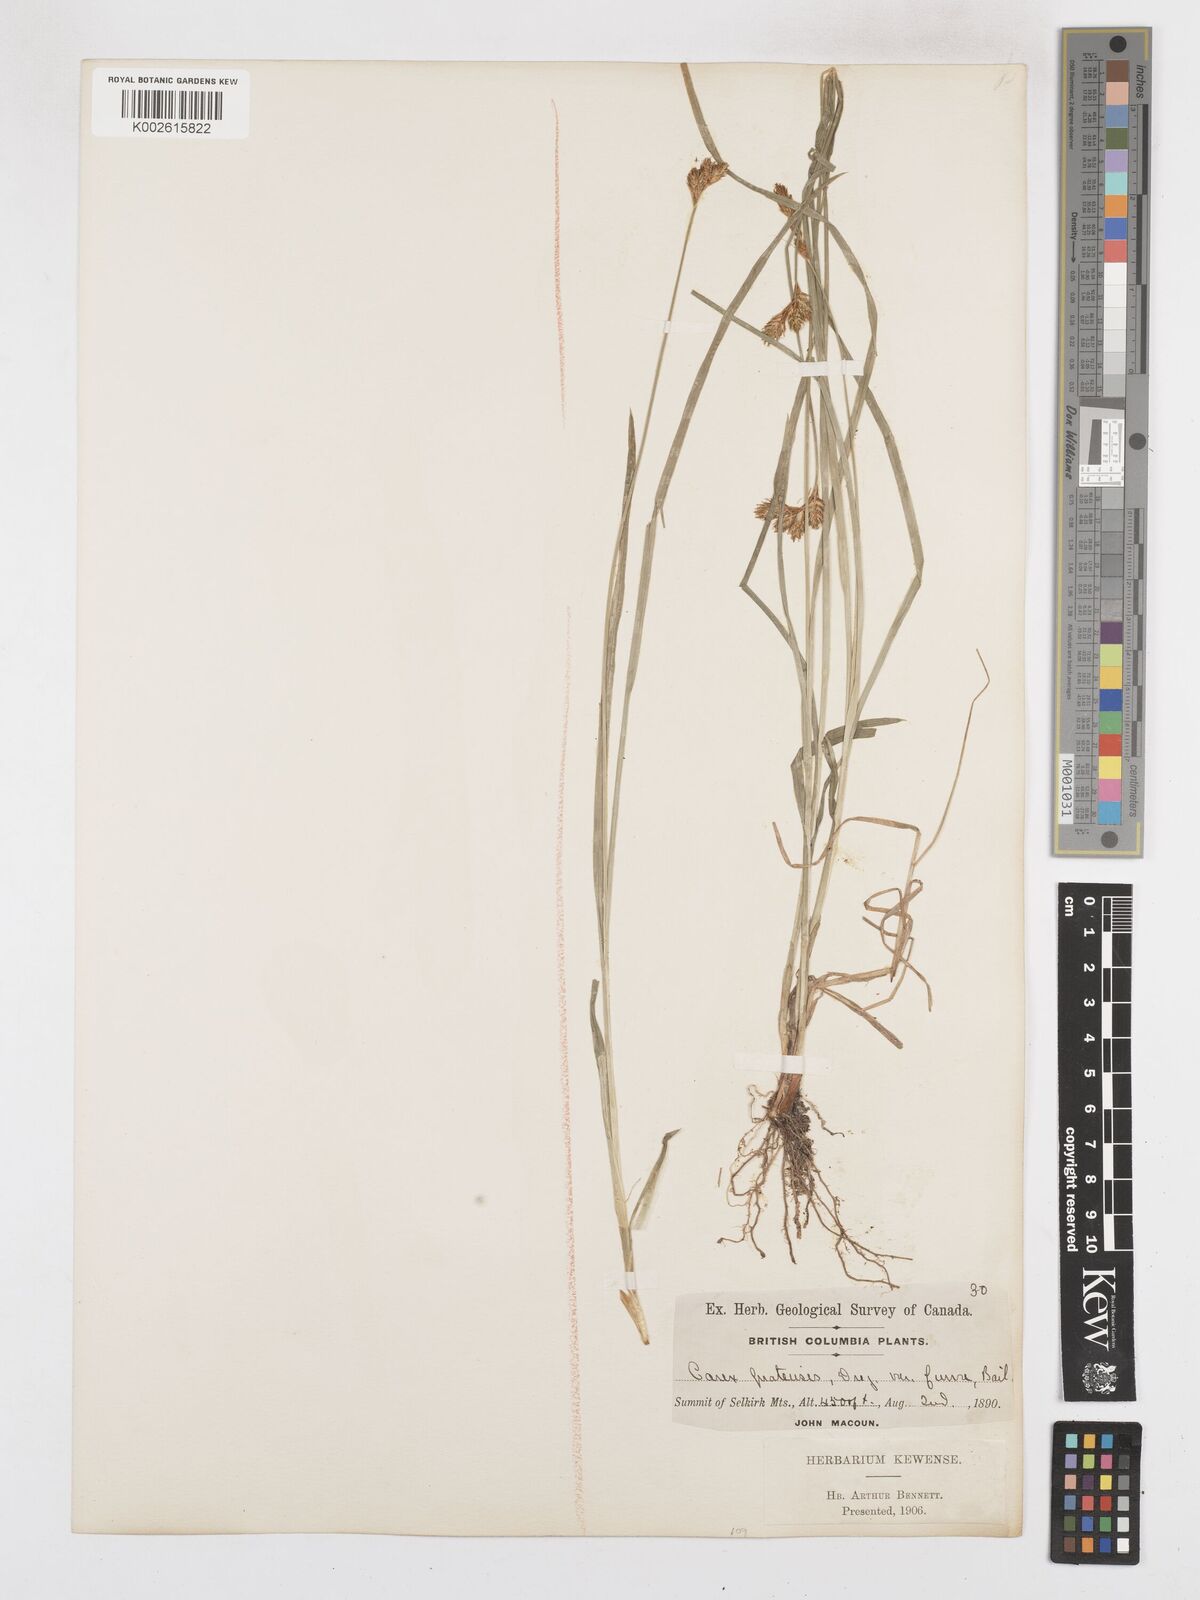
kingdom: Plantae
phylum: Tracheophyta
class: Liliopsida
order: Poales
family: Cyperaceae
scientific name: Cyperaceae
